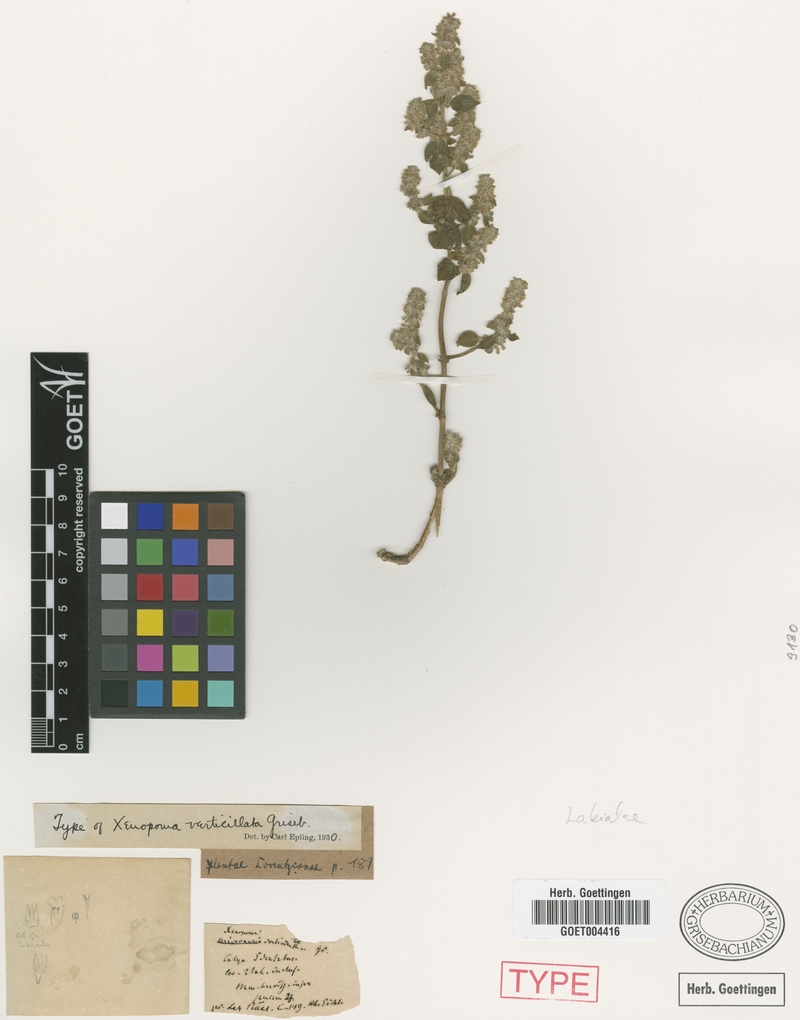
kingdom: Plantae
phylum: Tracheophyta
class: Magnoliopsida
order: Lamiales
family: Lamiaceae
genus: Minthostachys
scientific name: Minthostachys verticillata
